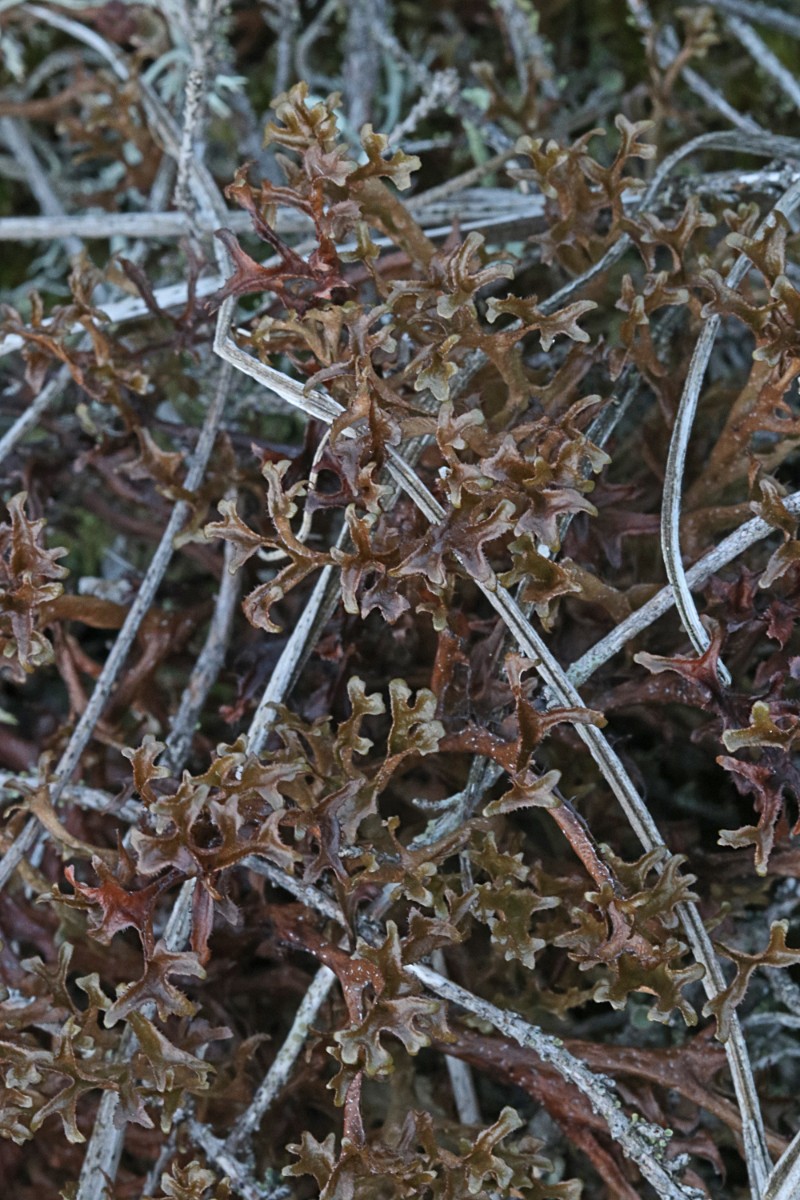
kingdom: Fungi
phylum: Ascomycota
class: Lecanoromycetes
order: Lecanorales
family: Parmeliaceae
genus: Cetraria
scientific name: Cetraria islandica
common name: islandsk kruslav
